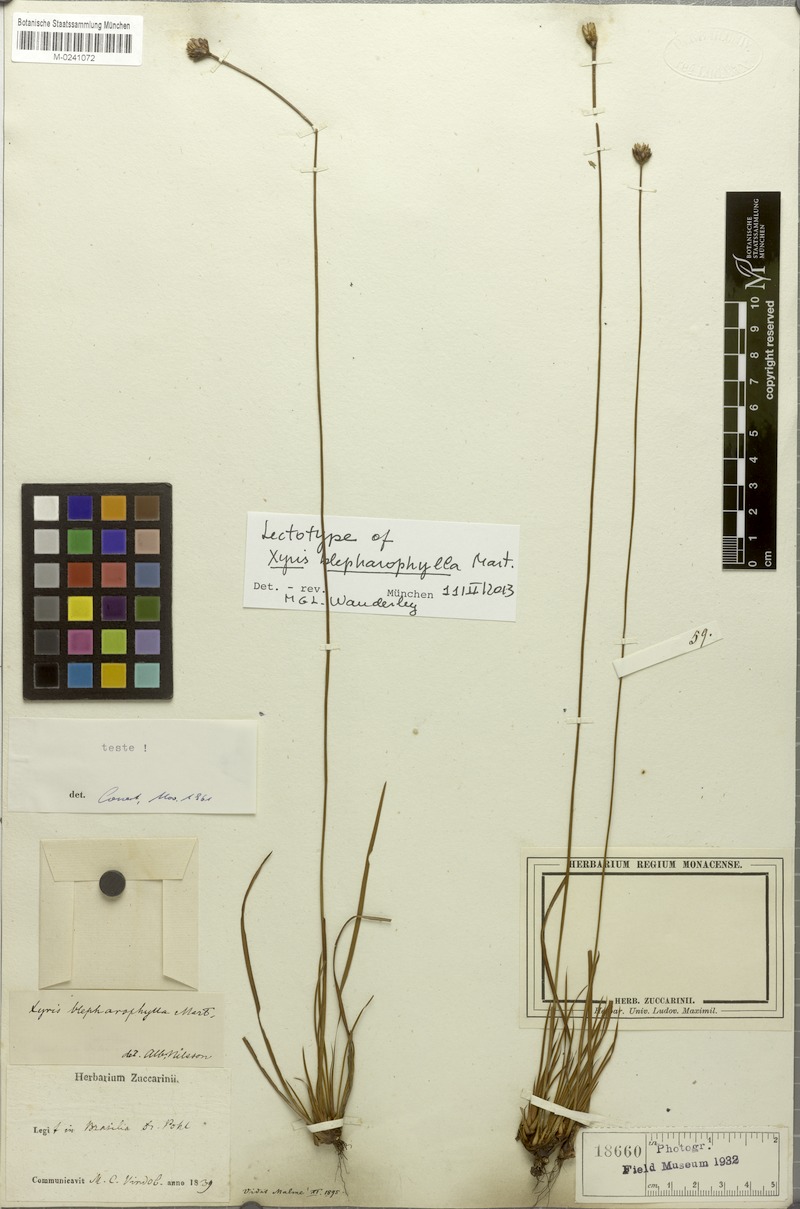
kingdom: Plantae
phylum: Tracheophyta
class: Liliopsida
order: Poales
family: Xyridaceae
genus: Xyris
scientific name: Xyris blepharophylla
